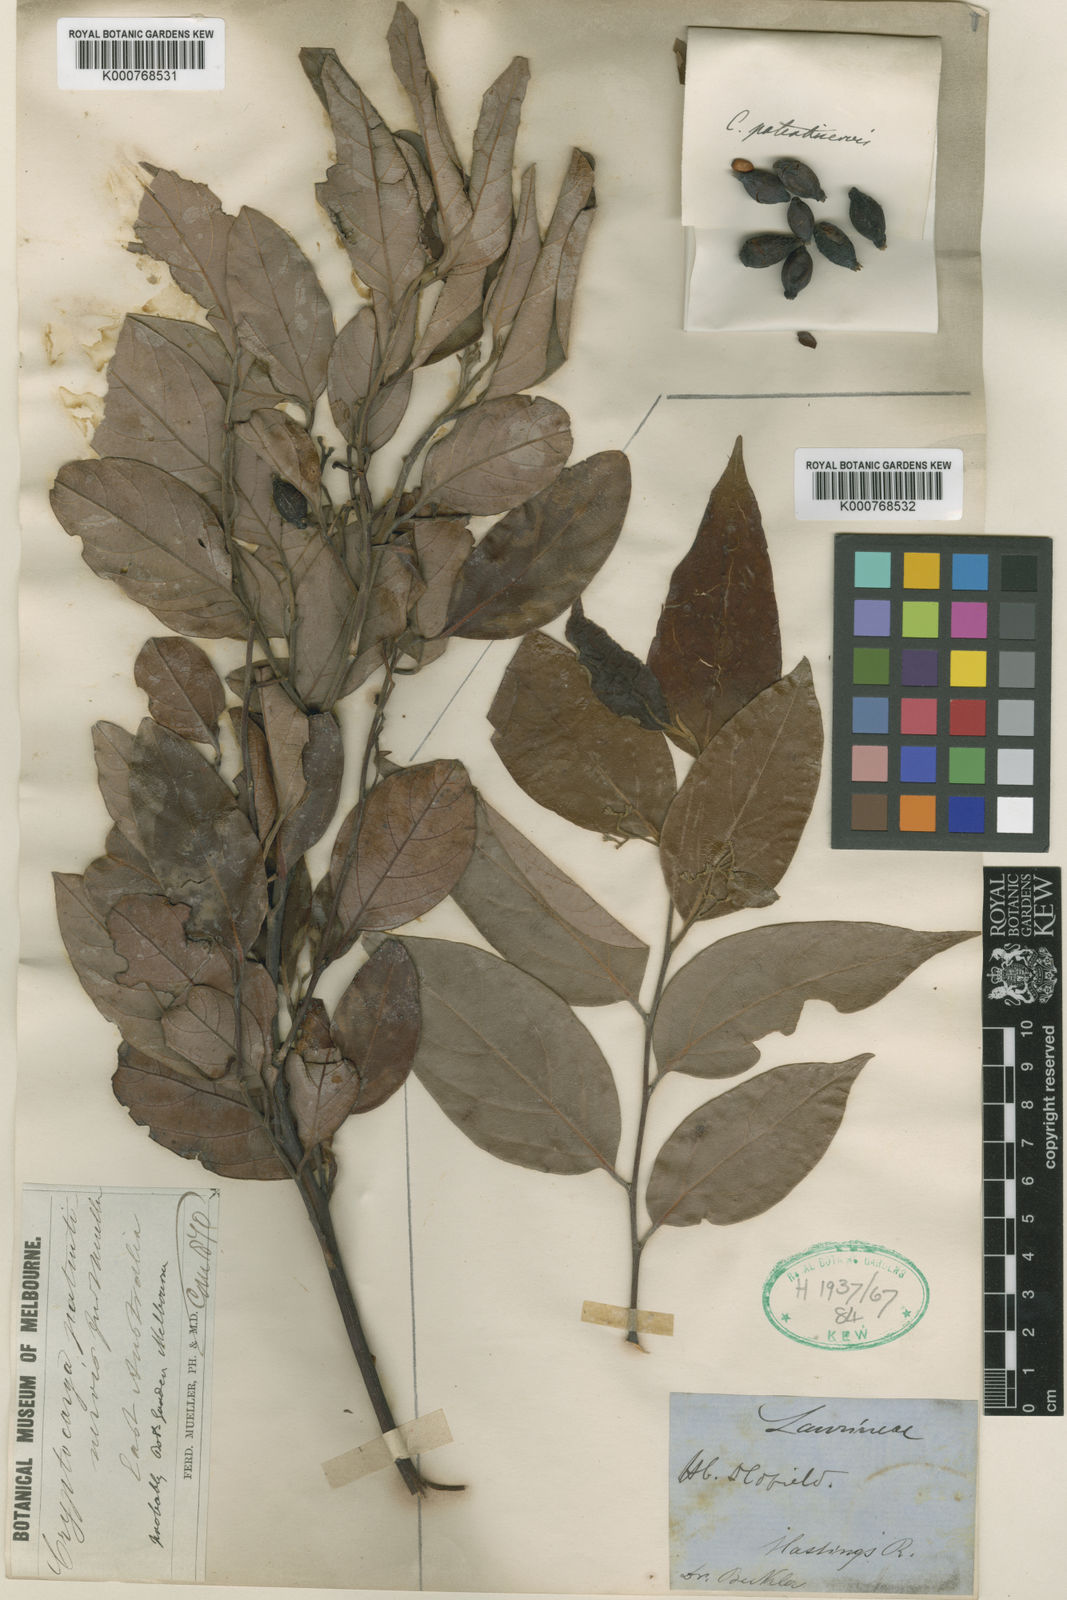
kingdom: Plantae
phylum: Tracheophyta
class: Magnoliopsida
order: Laurales
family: Lauraceae
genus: Cryptocarya
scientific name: Cryptocarya rigida
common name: Forest-maple
